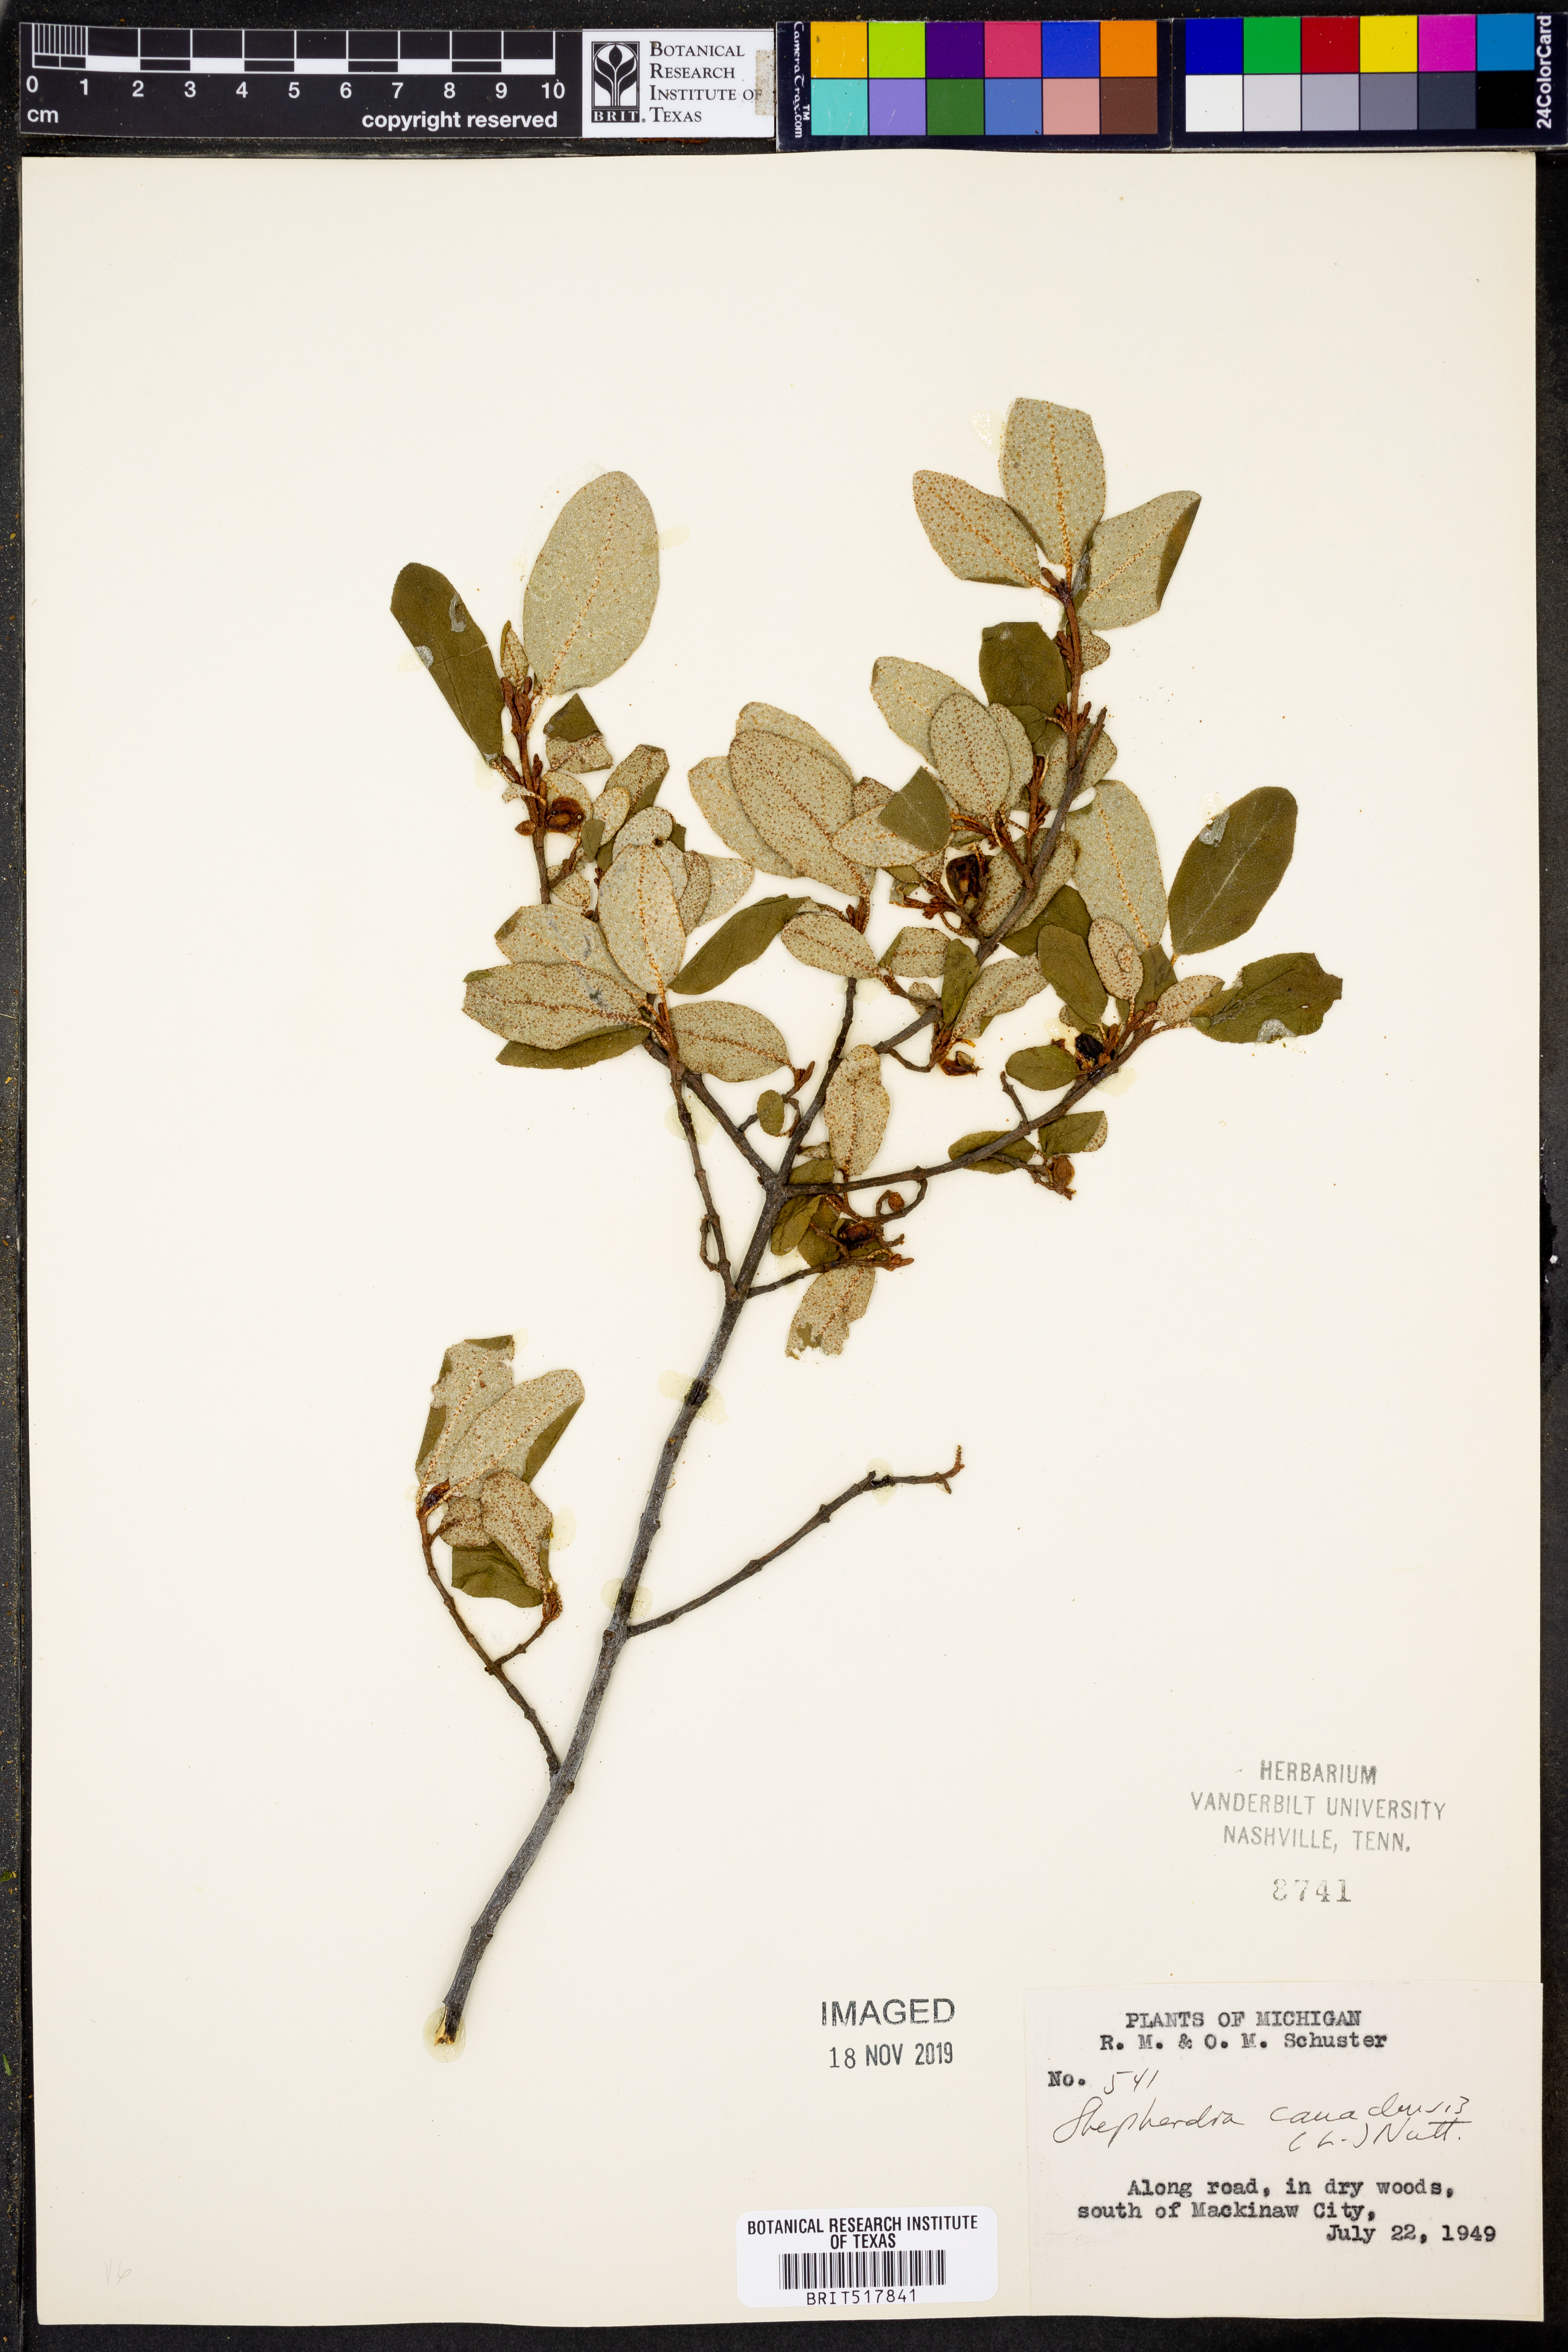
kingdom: Plantae
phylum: Tracheophyta
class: Magnoliopsida
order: Rosales
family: Elaeagnaceae
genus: Shepherdia
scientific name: Shepherdia canadensis
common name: Soapberry
